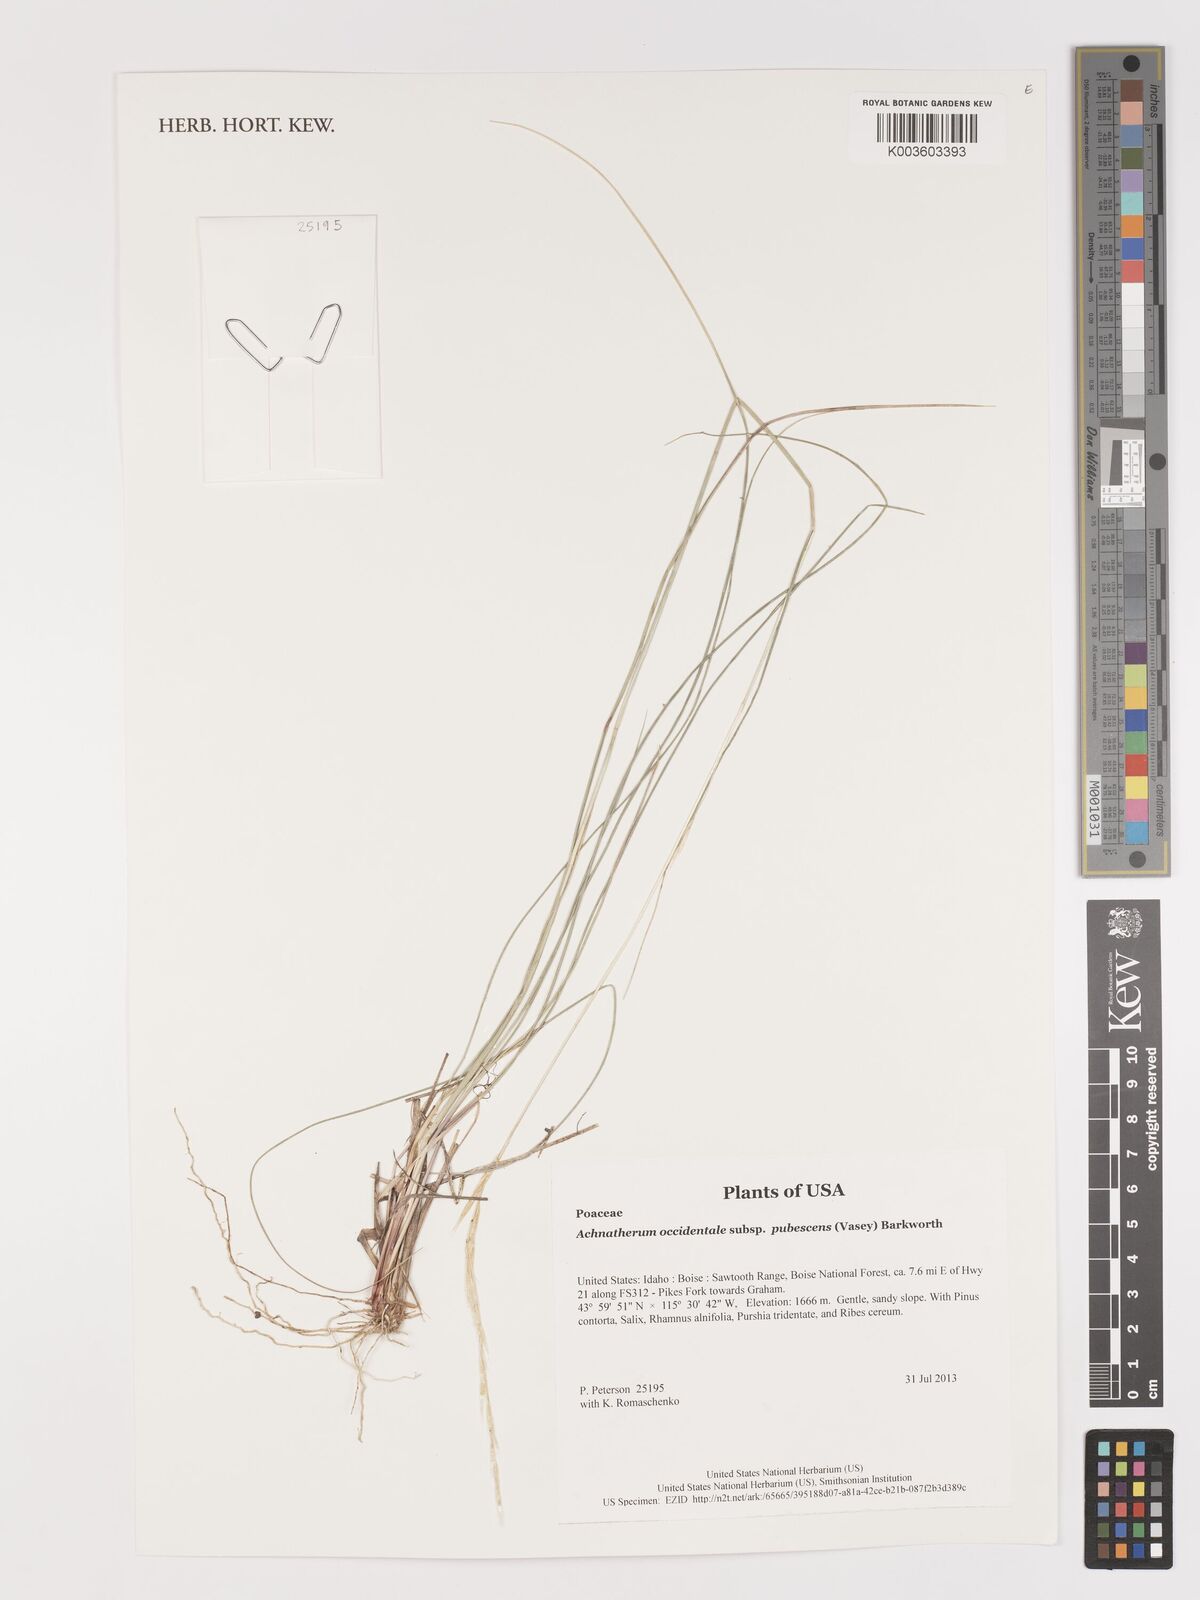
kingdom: Plantae
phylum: Tracheophyta
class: Liliopsida
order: Poales
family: Poaceae
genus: Stipa
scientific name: Stipa
